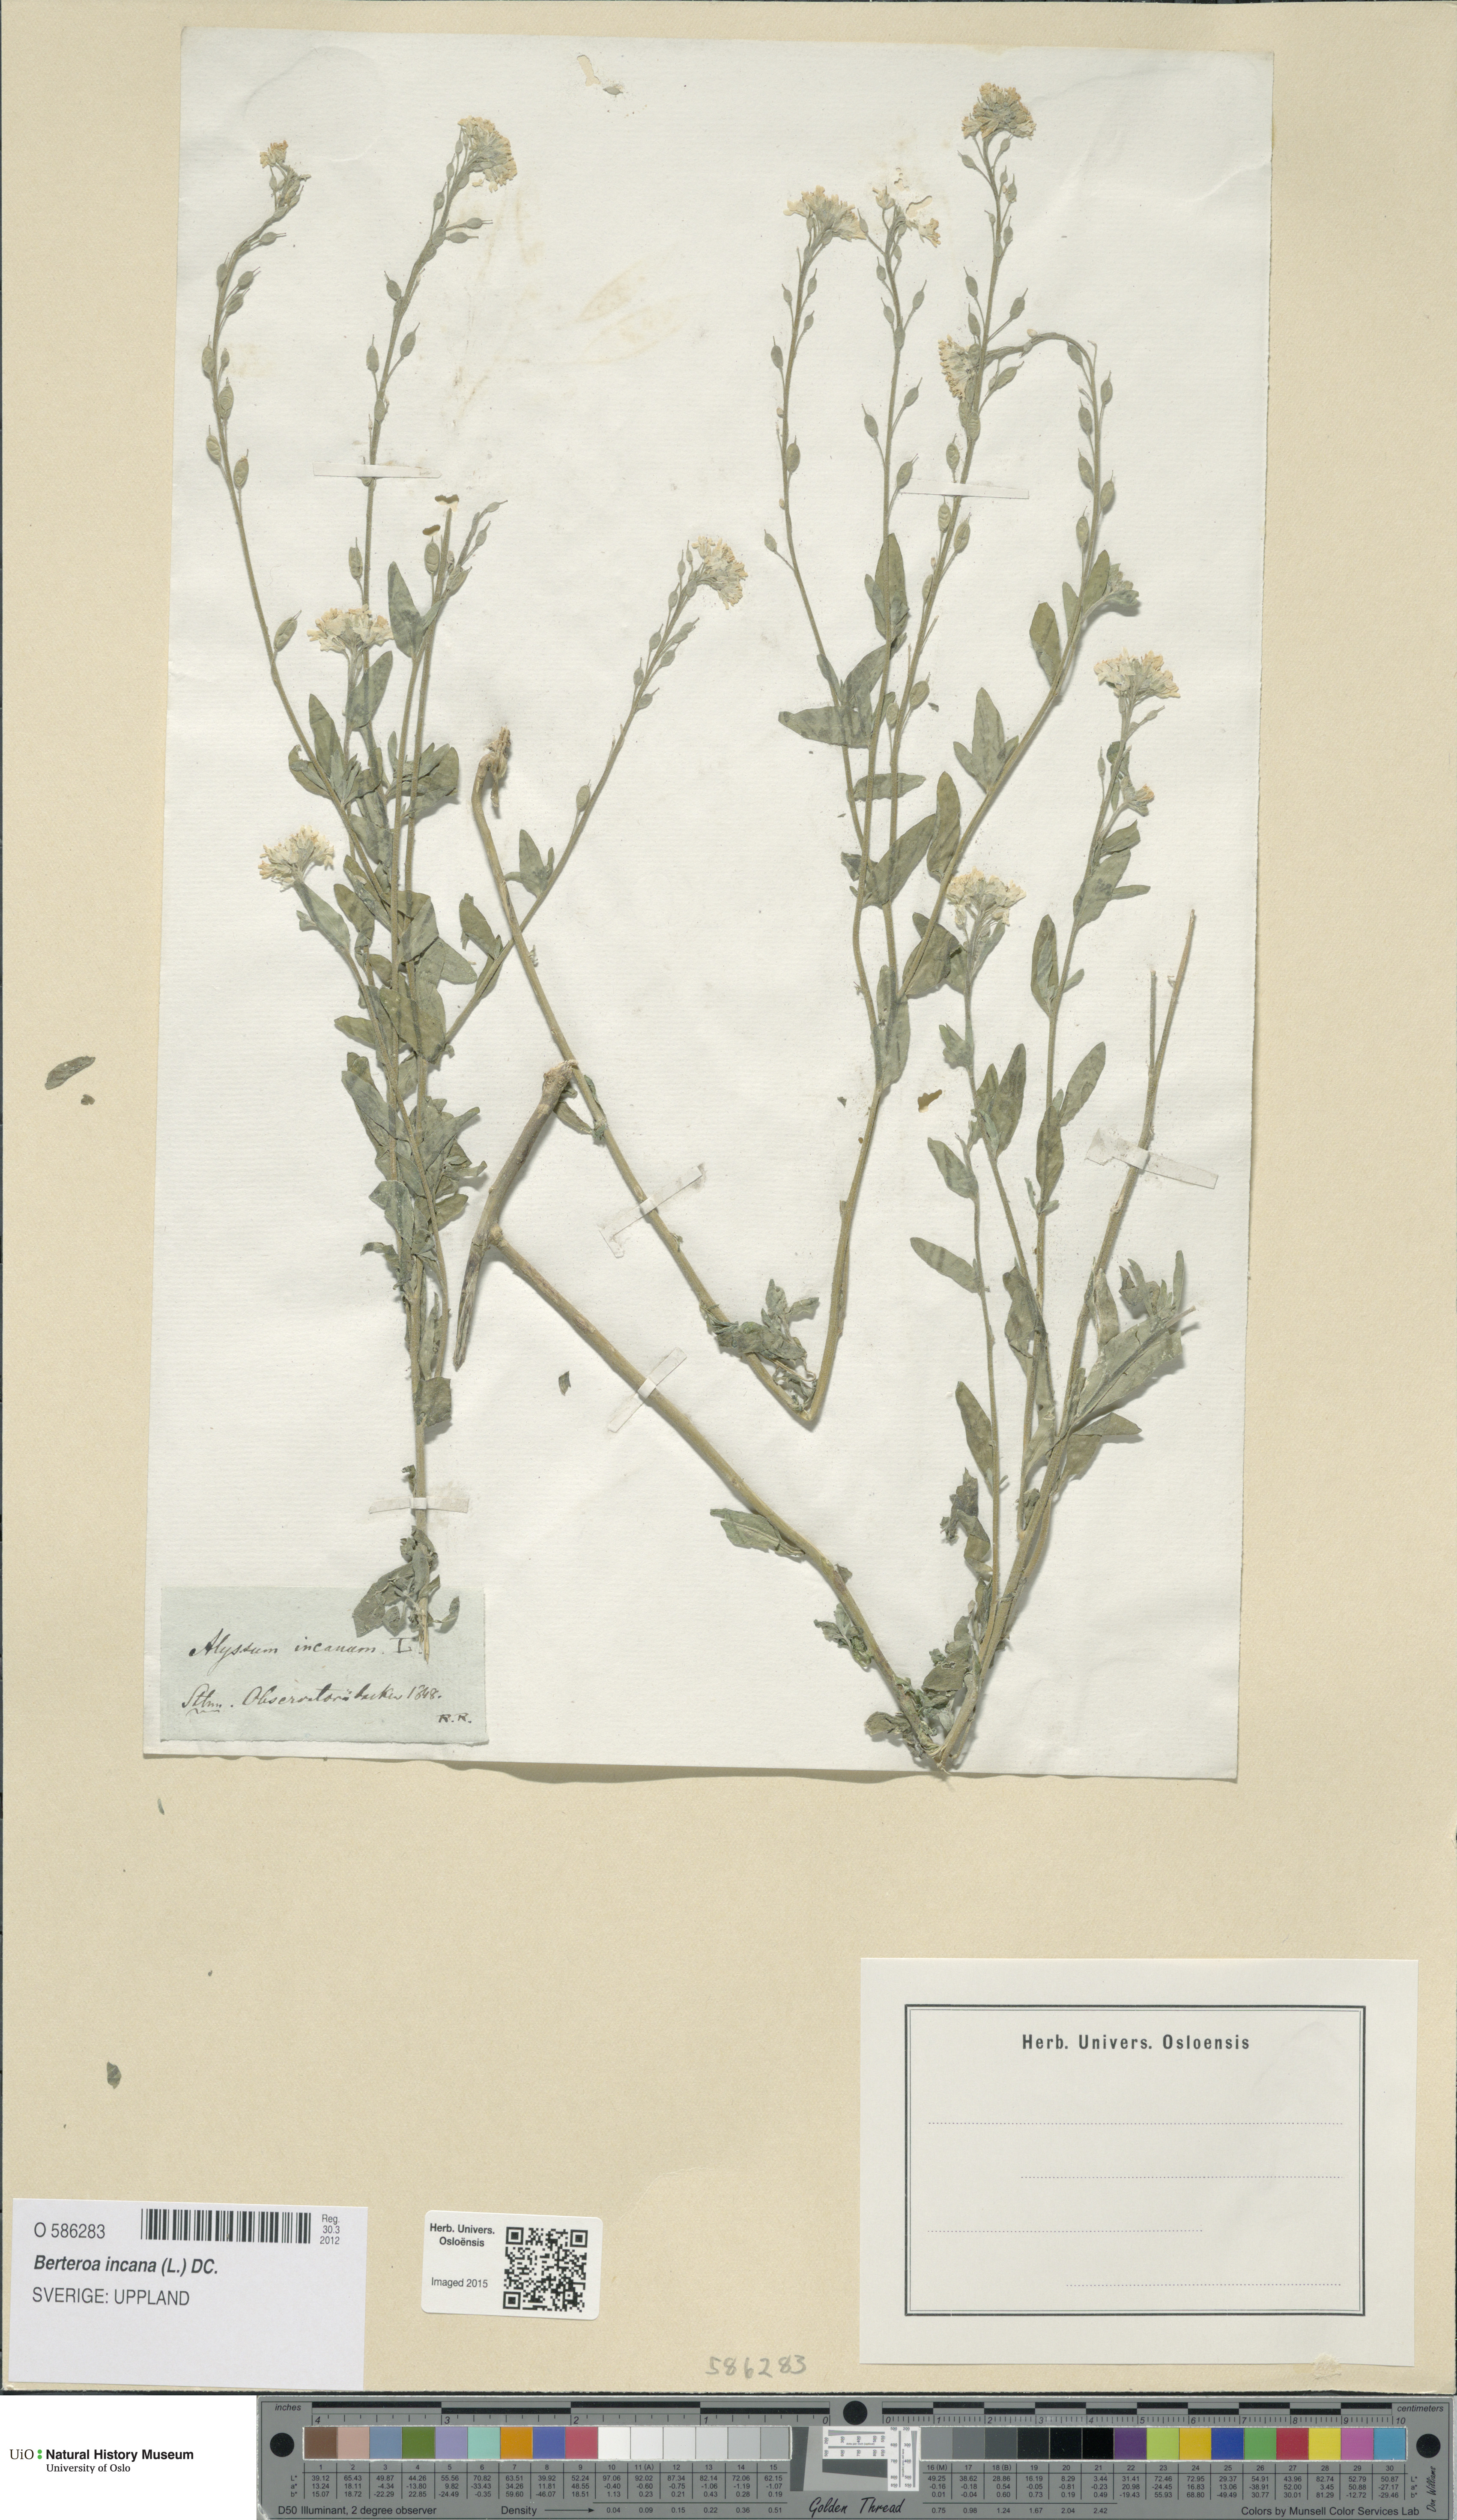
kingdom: Plantae
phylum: Tracheophyta
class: Magnoliopsida
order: Brassicales
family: Brassicaceae
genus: Berteroa
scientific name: Berteroa incana
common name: Hoary alison
